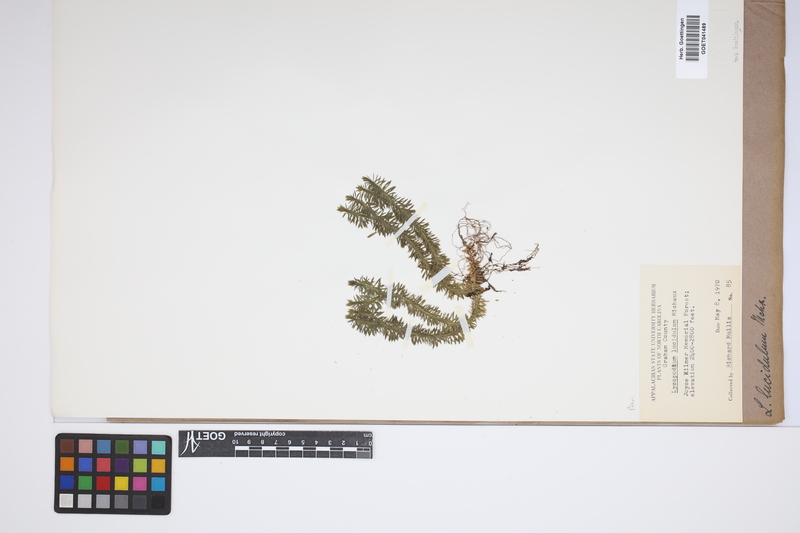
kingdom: Plantae
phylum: Tracheophyta
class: Lycopodiopsida
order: Lycopodiales
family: Lycopodiaceae
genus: Huperzia
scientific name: Huperzia lucidula
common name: Shining clubmoss
